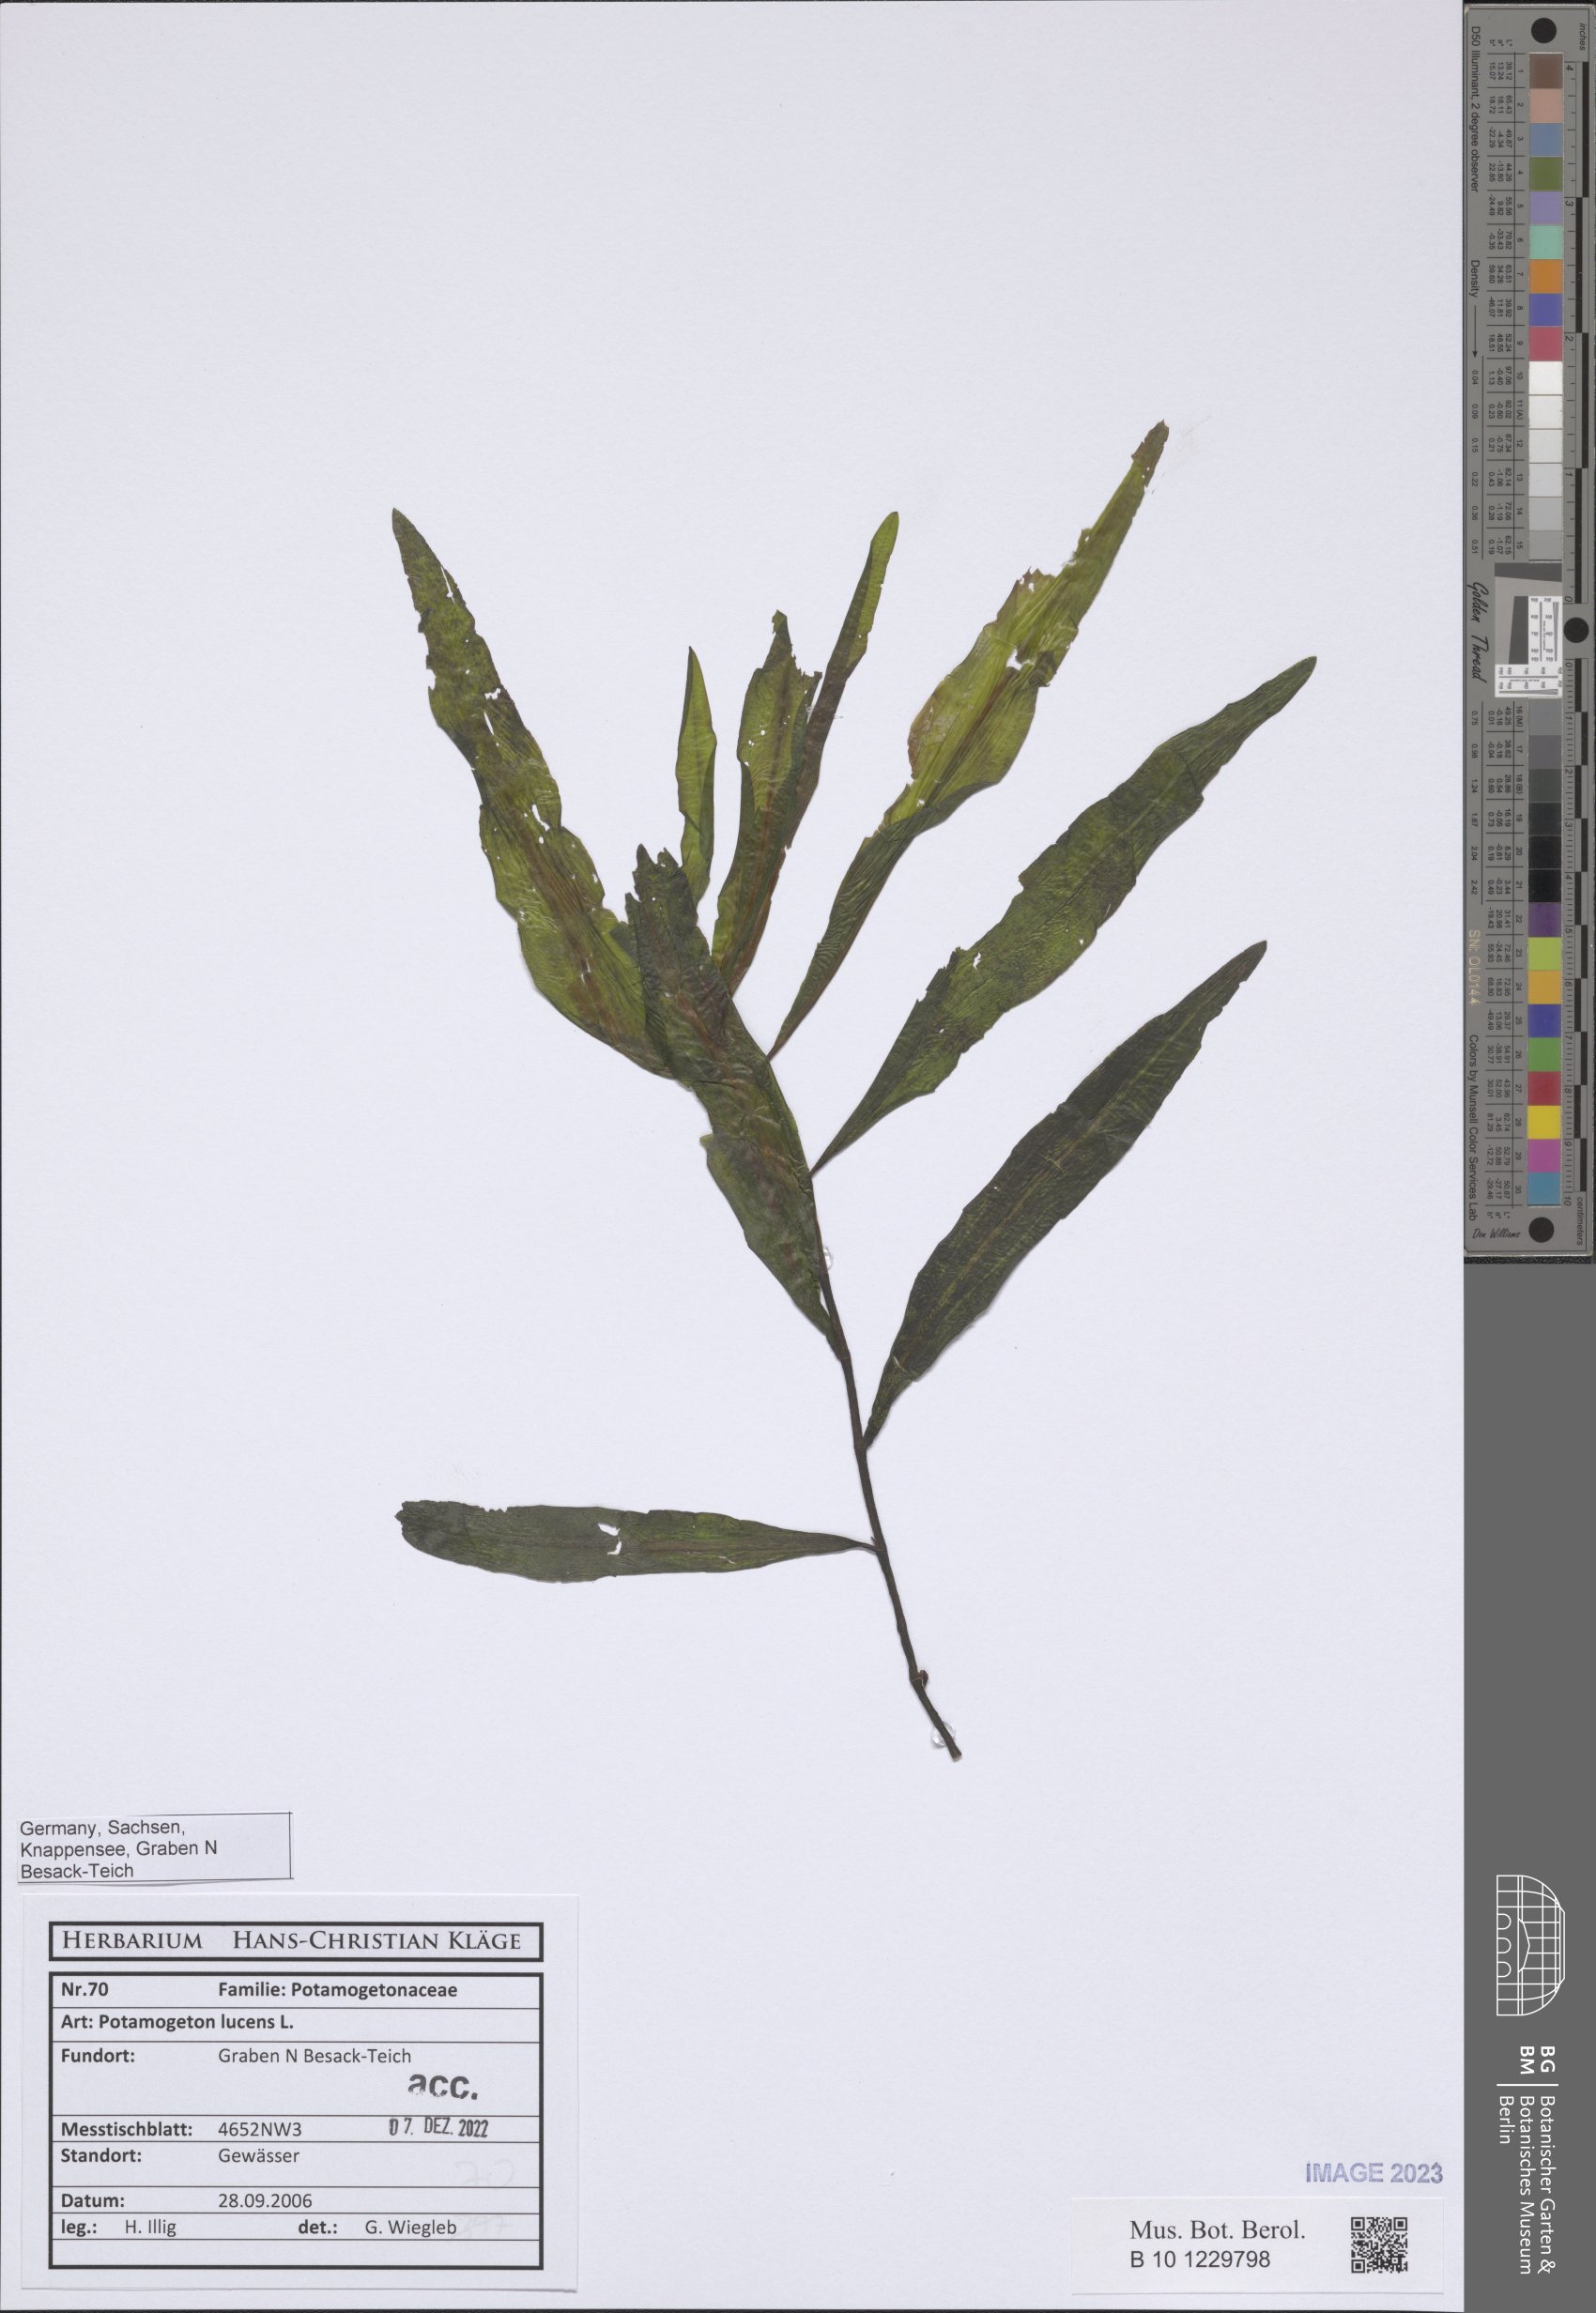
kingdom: Plantae
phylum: Tracheophyta
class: Liliopsida
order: Alismatales
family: Potamogetonaceae
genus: Potamogeton
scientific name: Potamogeton lucens
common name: Shining pondweed
